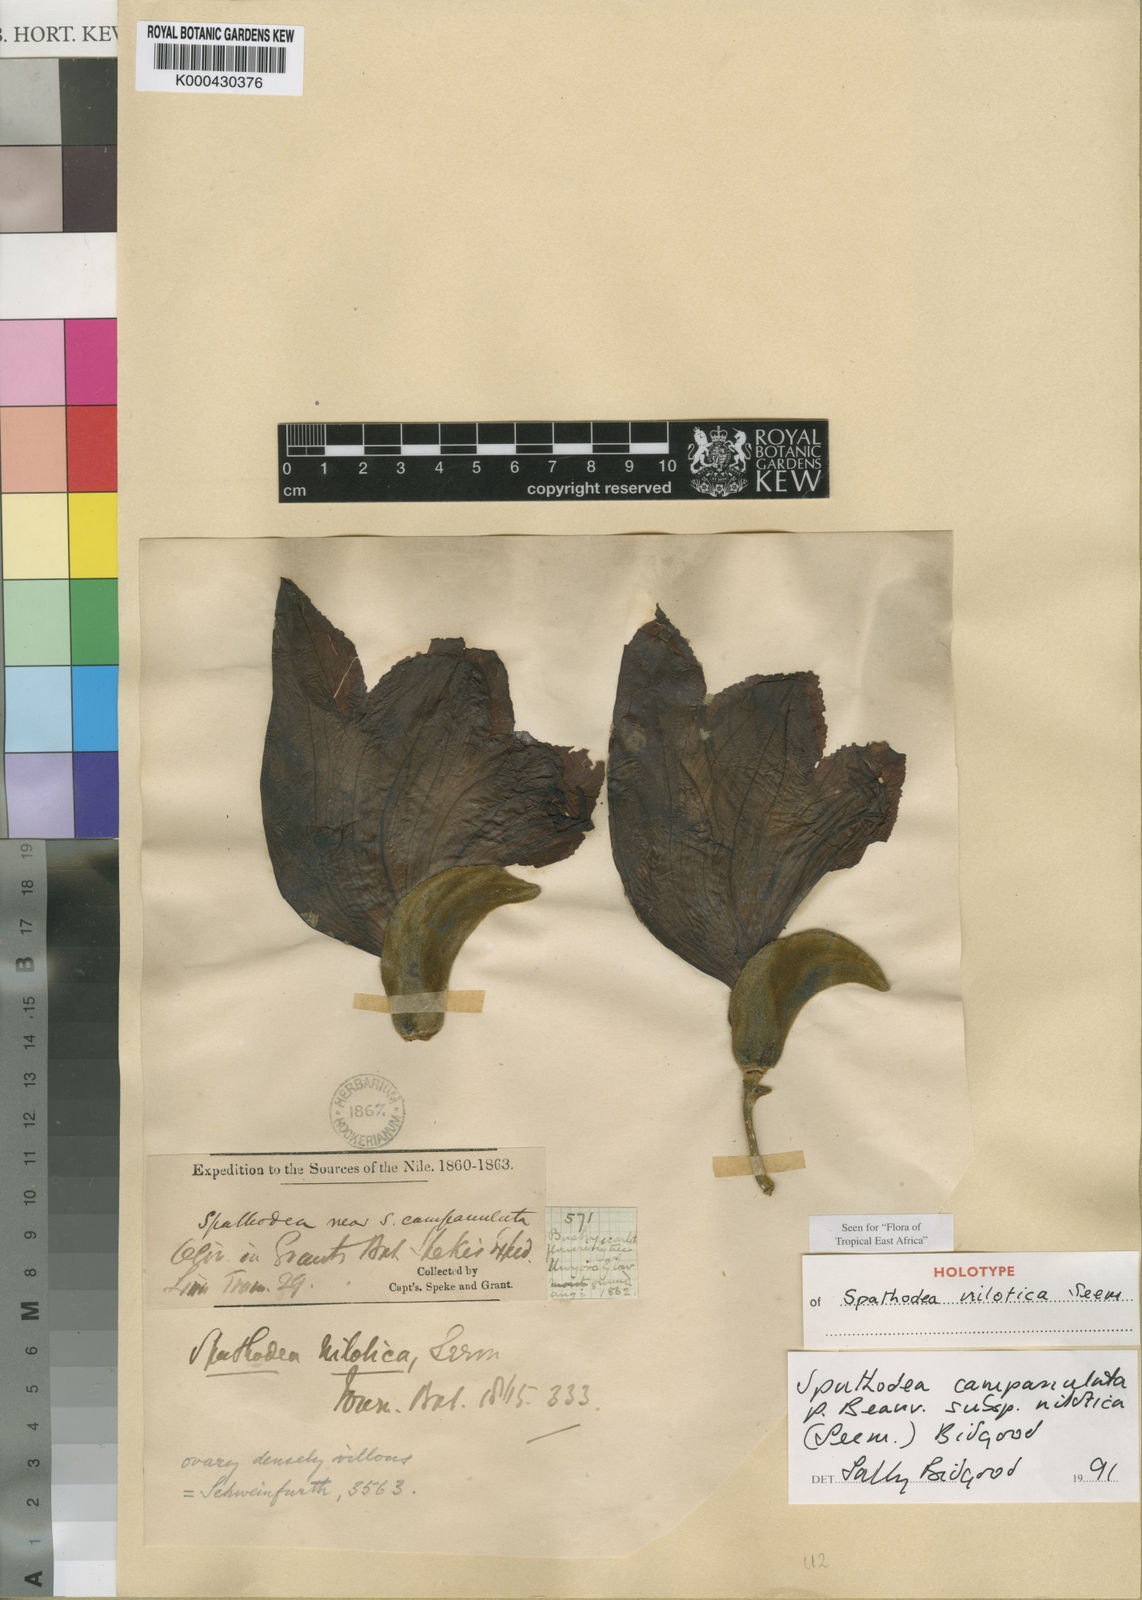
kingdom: Plantae
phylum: Tracheophyta
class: Magnoliopsida
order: Lamiales
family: Bignoniaceae
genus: Spathodea
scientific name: Spathodea campanulata
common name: African tuliptree
